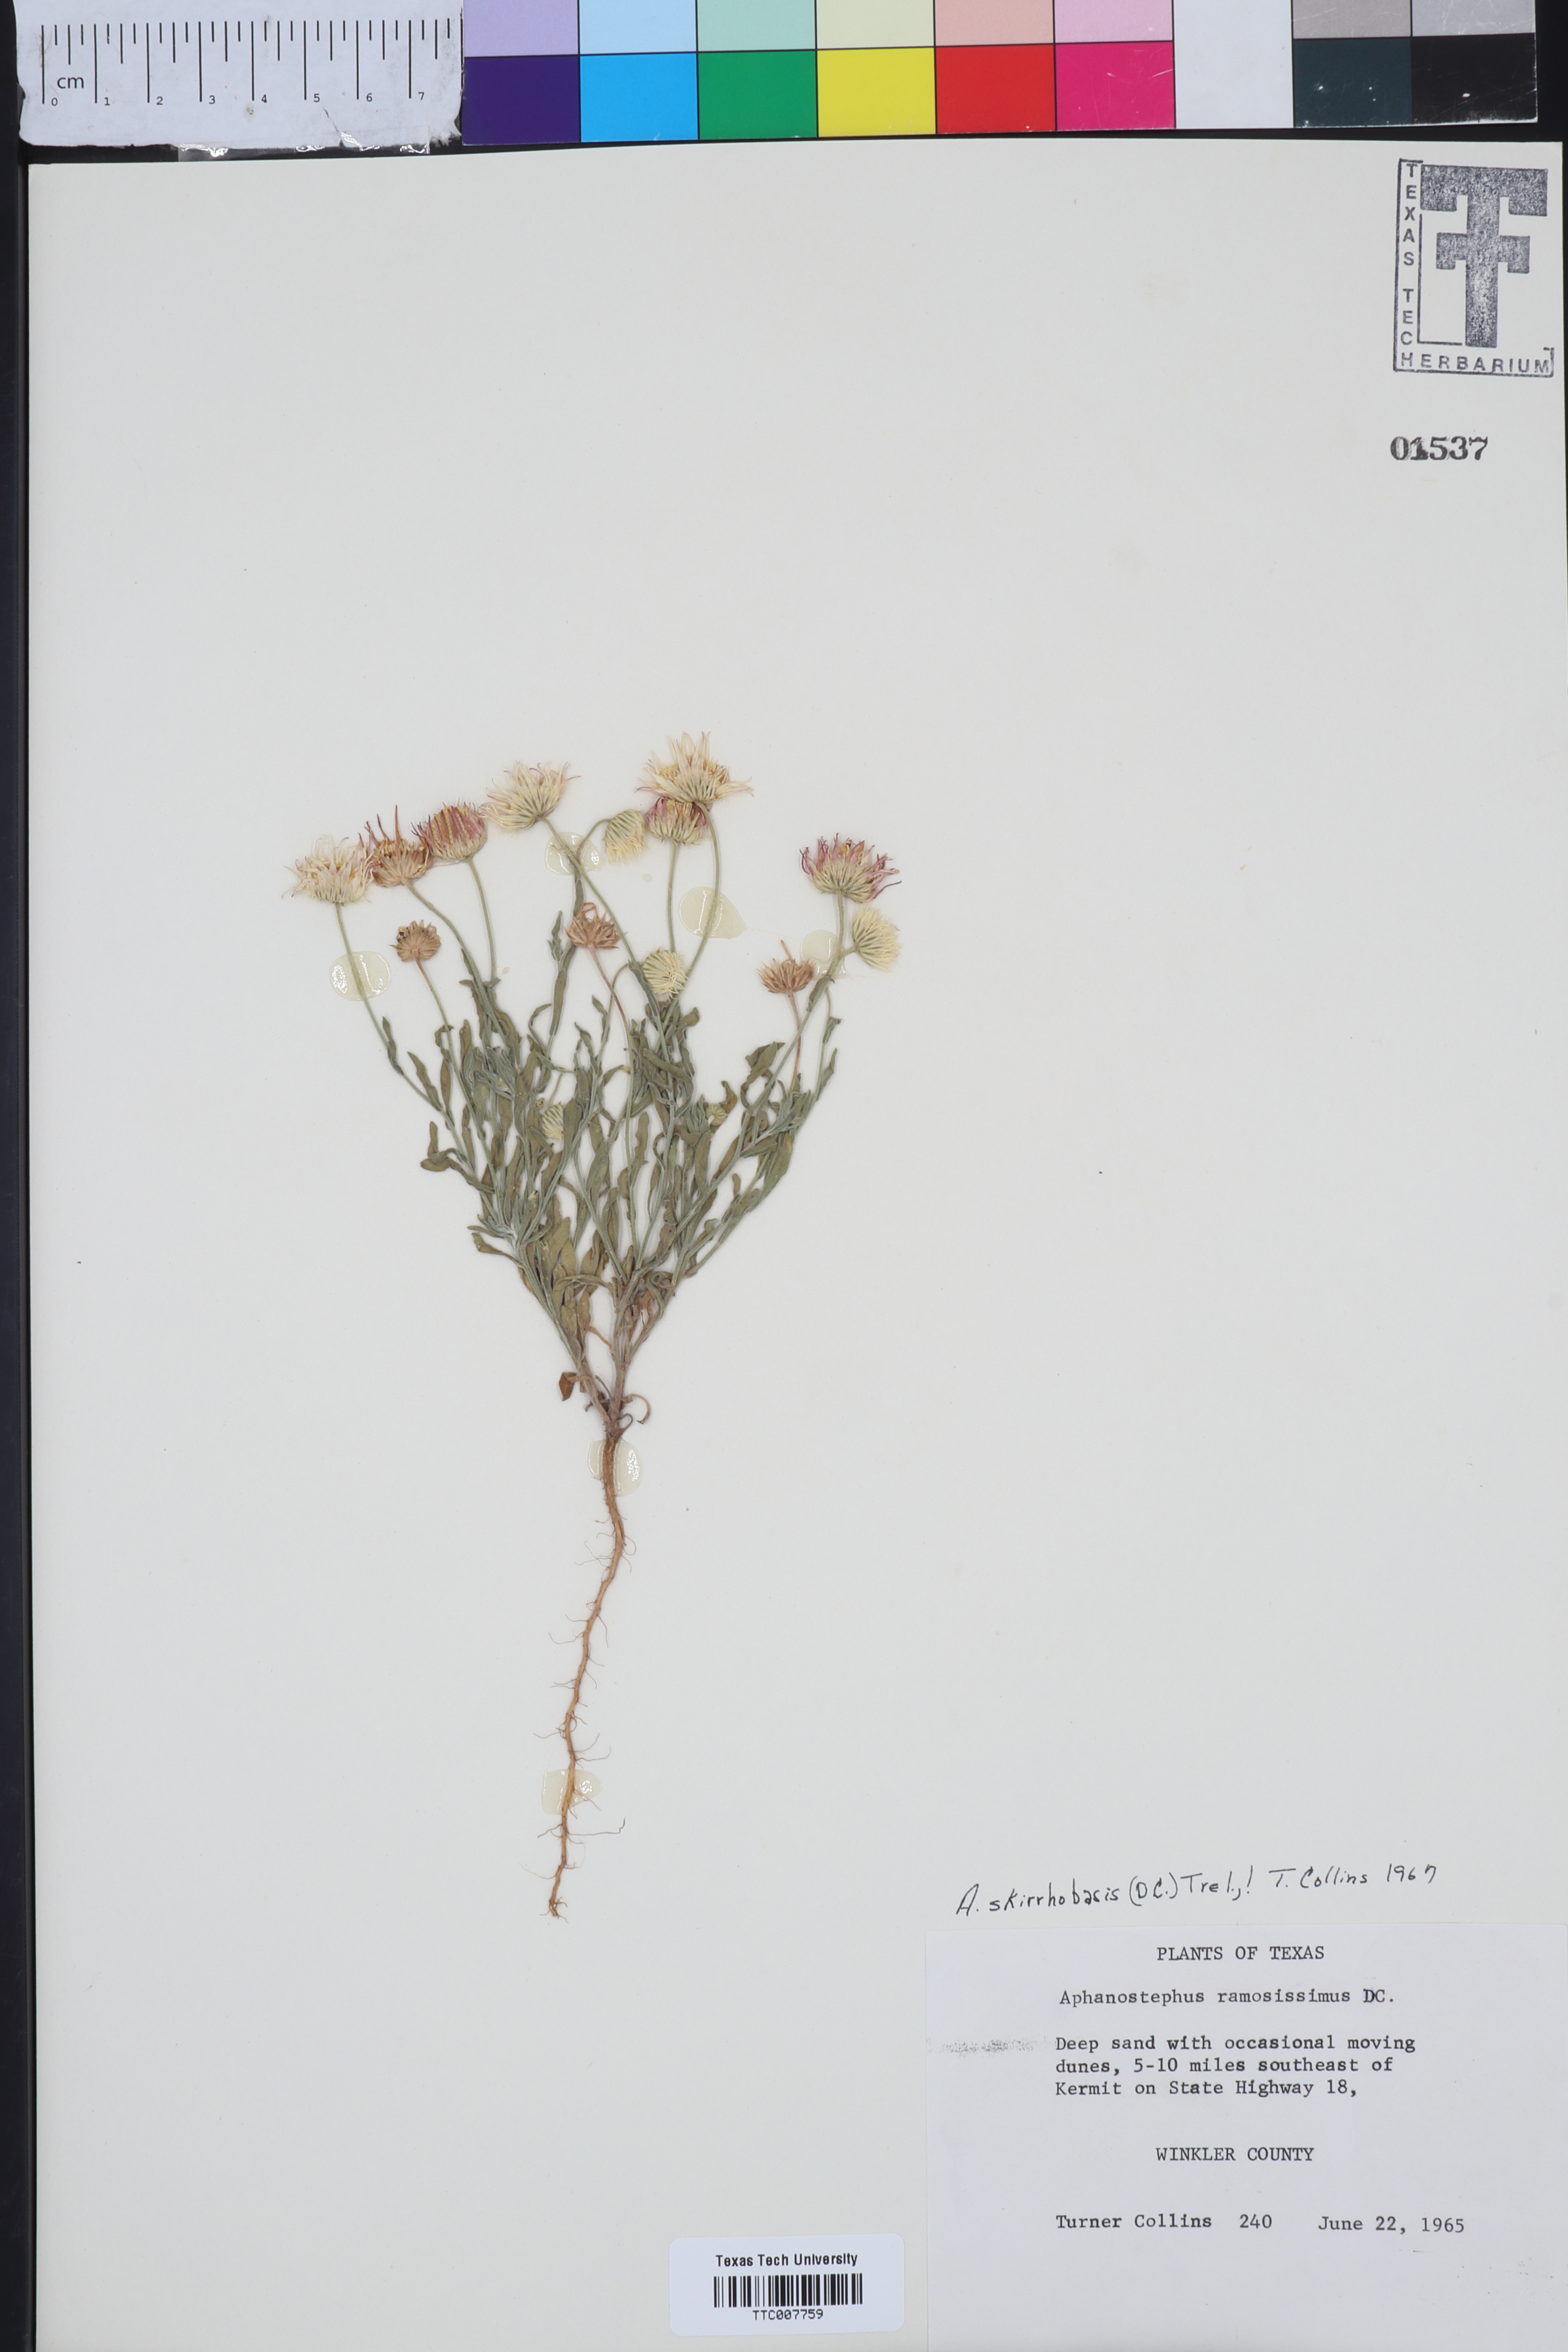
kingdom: Plantae
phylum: Tracheophyta
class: Magnoliopsida
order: Asterales
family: Asteraceae
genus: Aphanostephus
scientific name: Aphanostephus skirrhobasis
